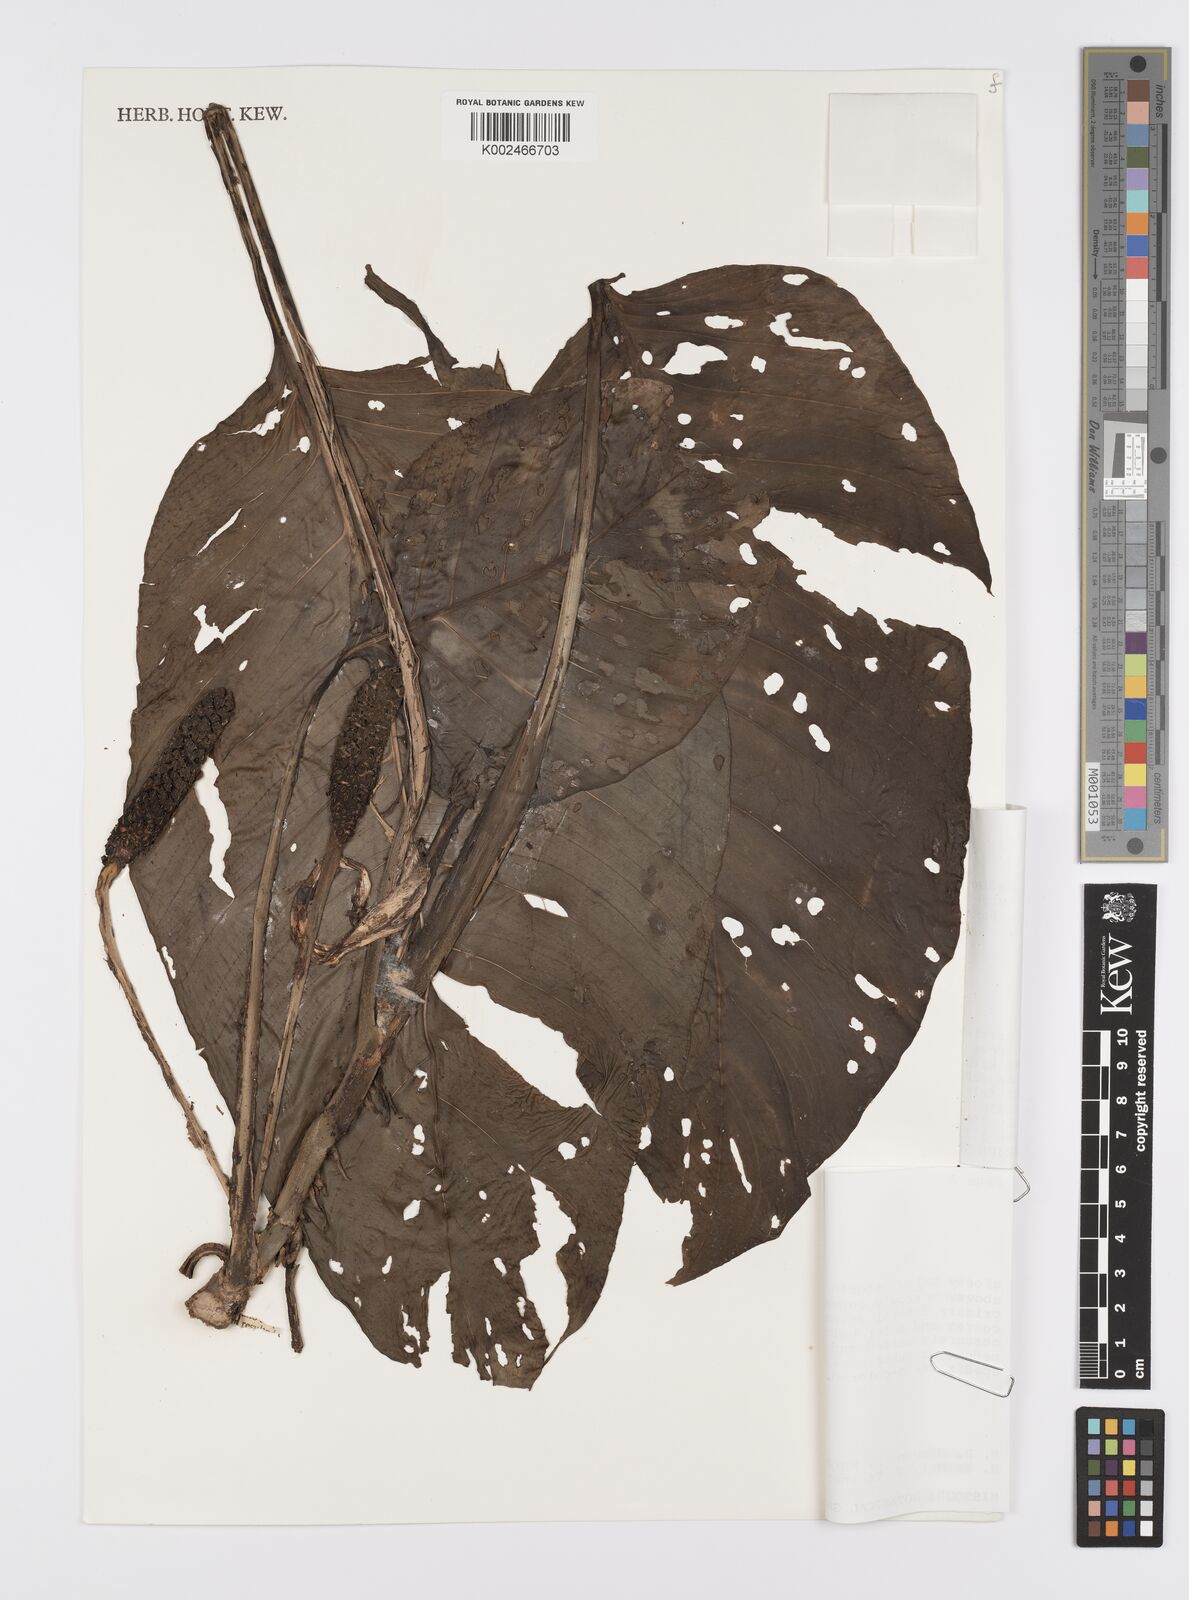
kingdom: Plantae
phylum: Tracheophyta
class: Liliopsida
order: Alismatales
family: Araceae
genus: Monstera
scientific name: Monstera adansonii
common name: Tarovine
